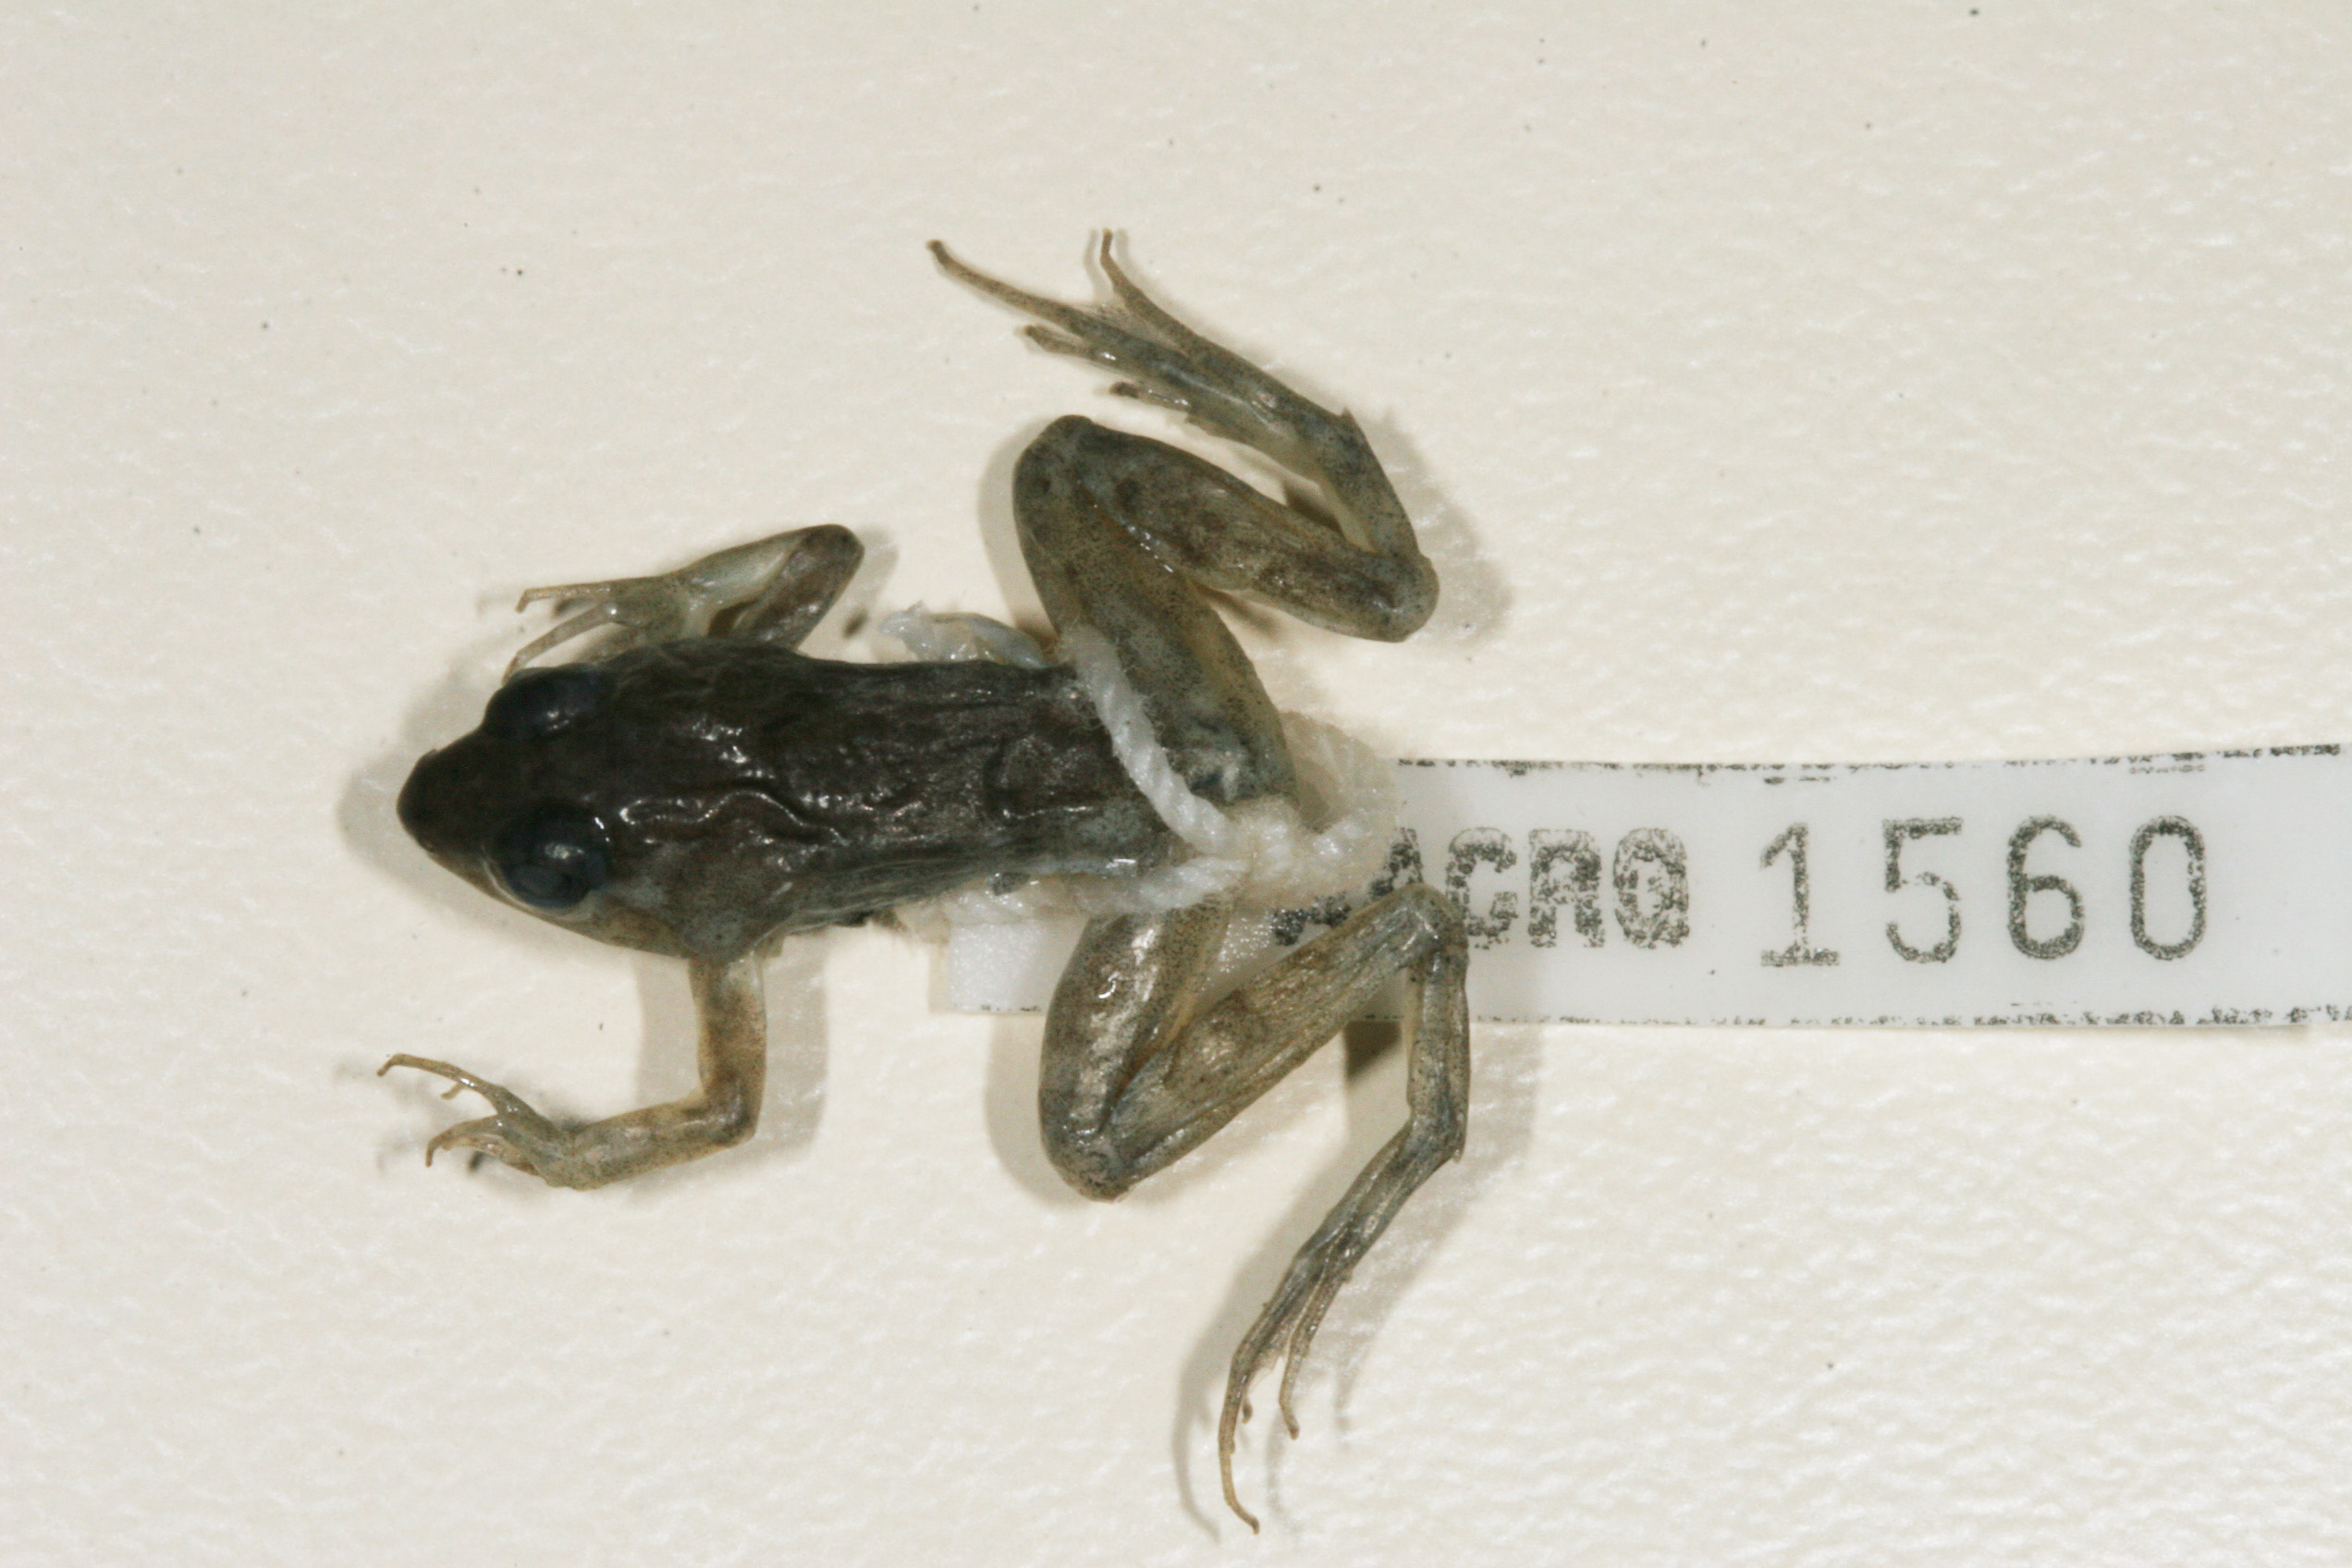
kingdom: Animalia
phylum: Chordata
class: Amphibia
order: Anura
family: Phrynobatrachidae
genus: Phrynobatrachus
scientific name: Phrynobatrachus acridoides
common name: East african puddle frog
